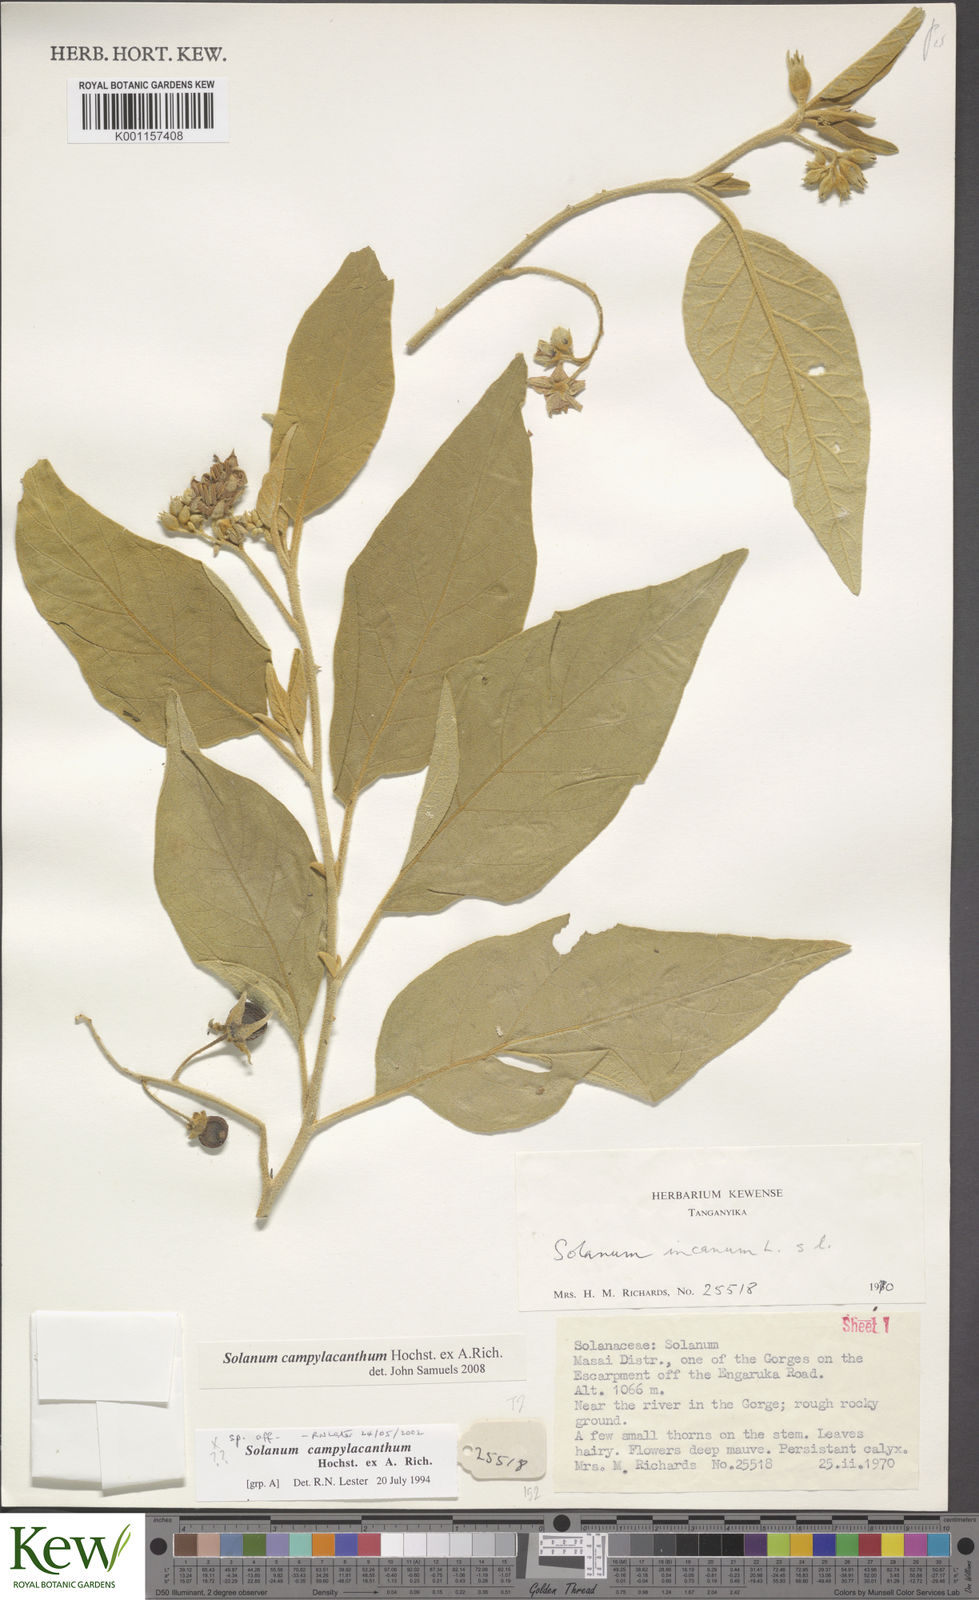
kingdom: Plantae
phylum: Tracheophyta
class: Magnoliopsida
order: Solanales
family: Solanaceae
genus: Solanum
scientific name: Solanum campylacanthum
